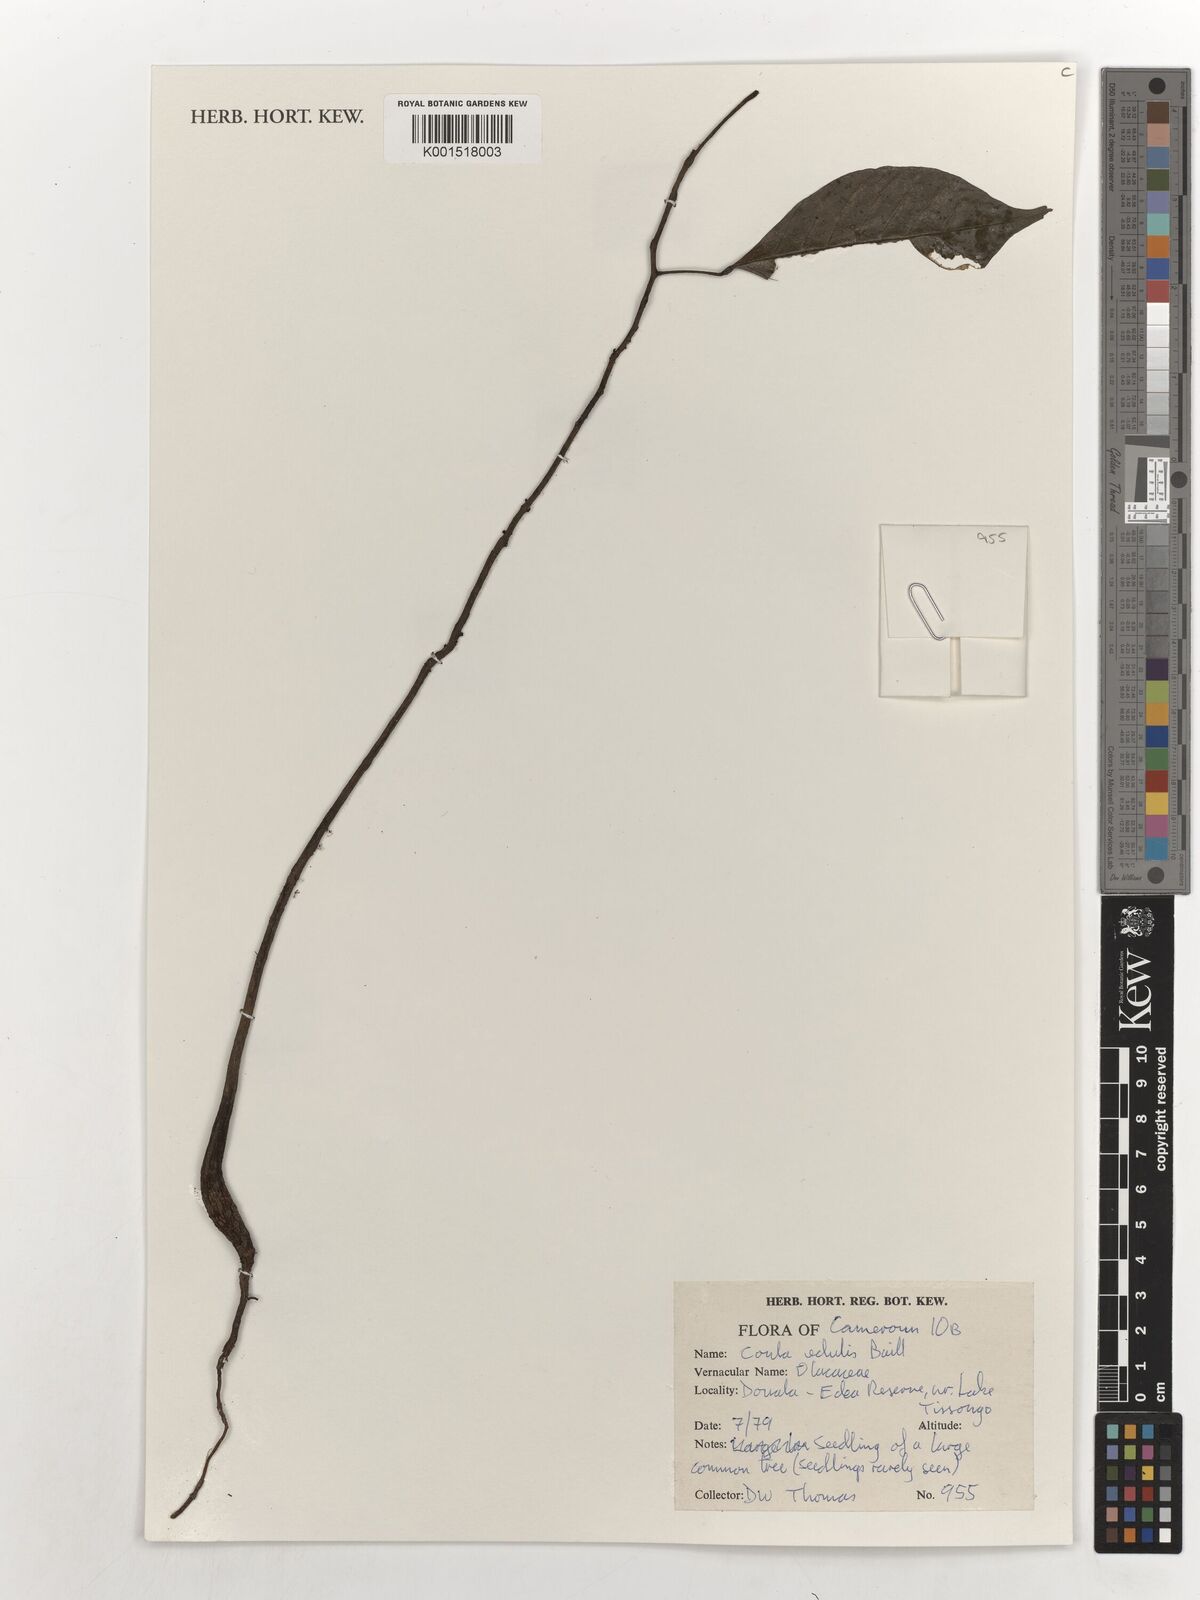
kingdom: Plantae
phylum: Tracheophyta
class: Magnoliopsida
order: Santalales
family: Coulaceae
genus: Coula
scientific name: Coula edulis
